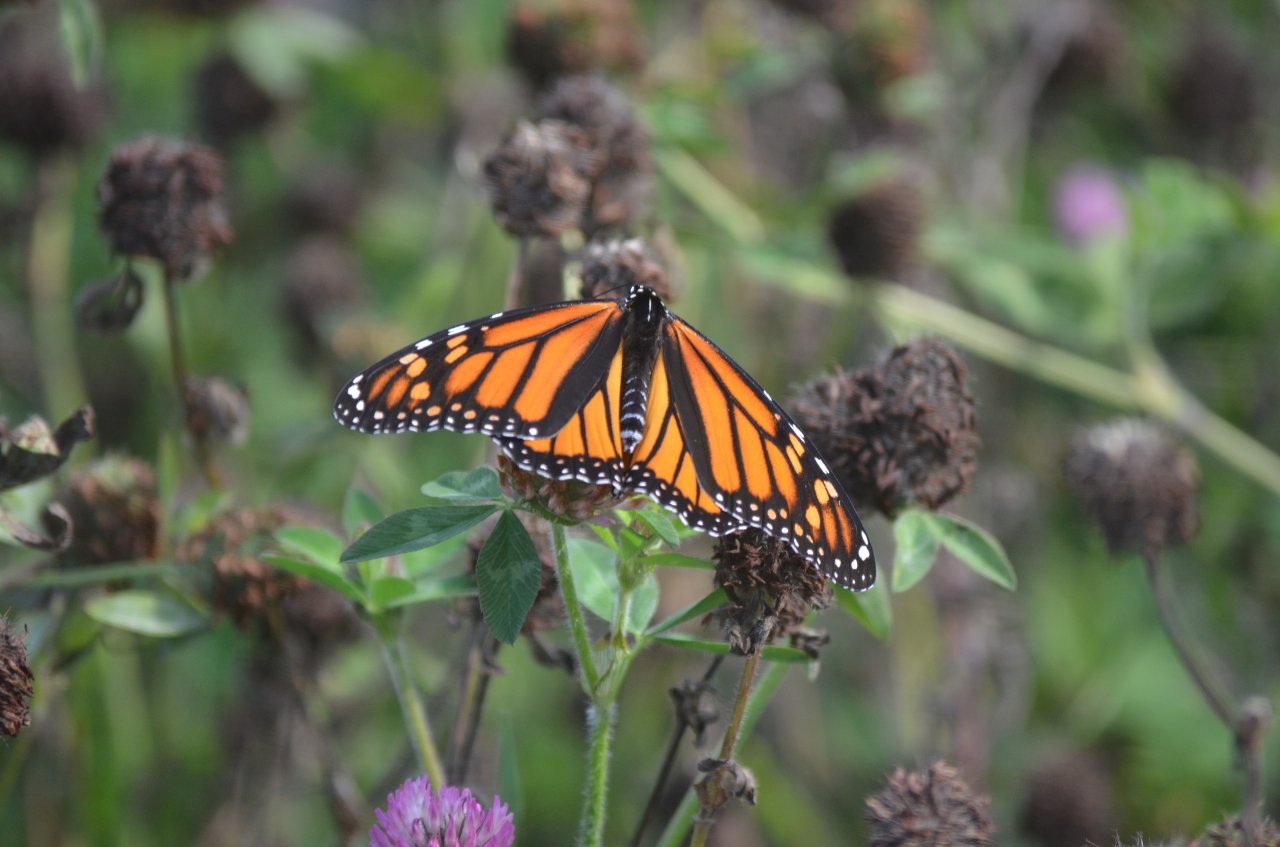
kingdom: Animalia
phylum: Arthropoda
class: Insecta
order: Lepidoptera
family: Nymphalidae
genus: Danaus
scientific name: Danaus plexippus
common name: Monarch
